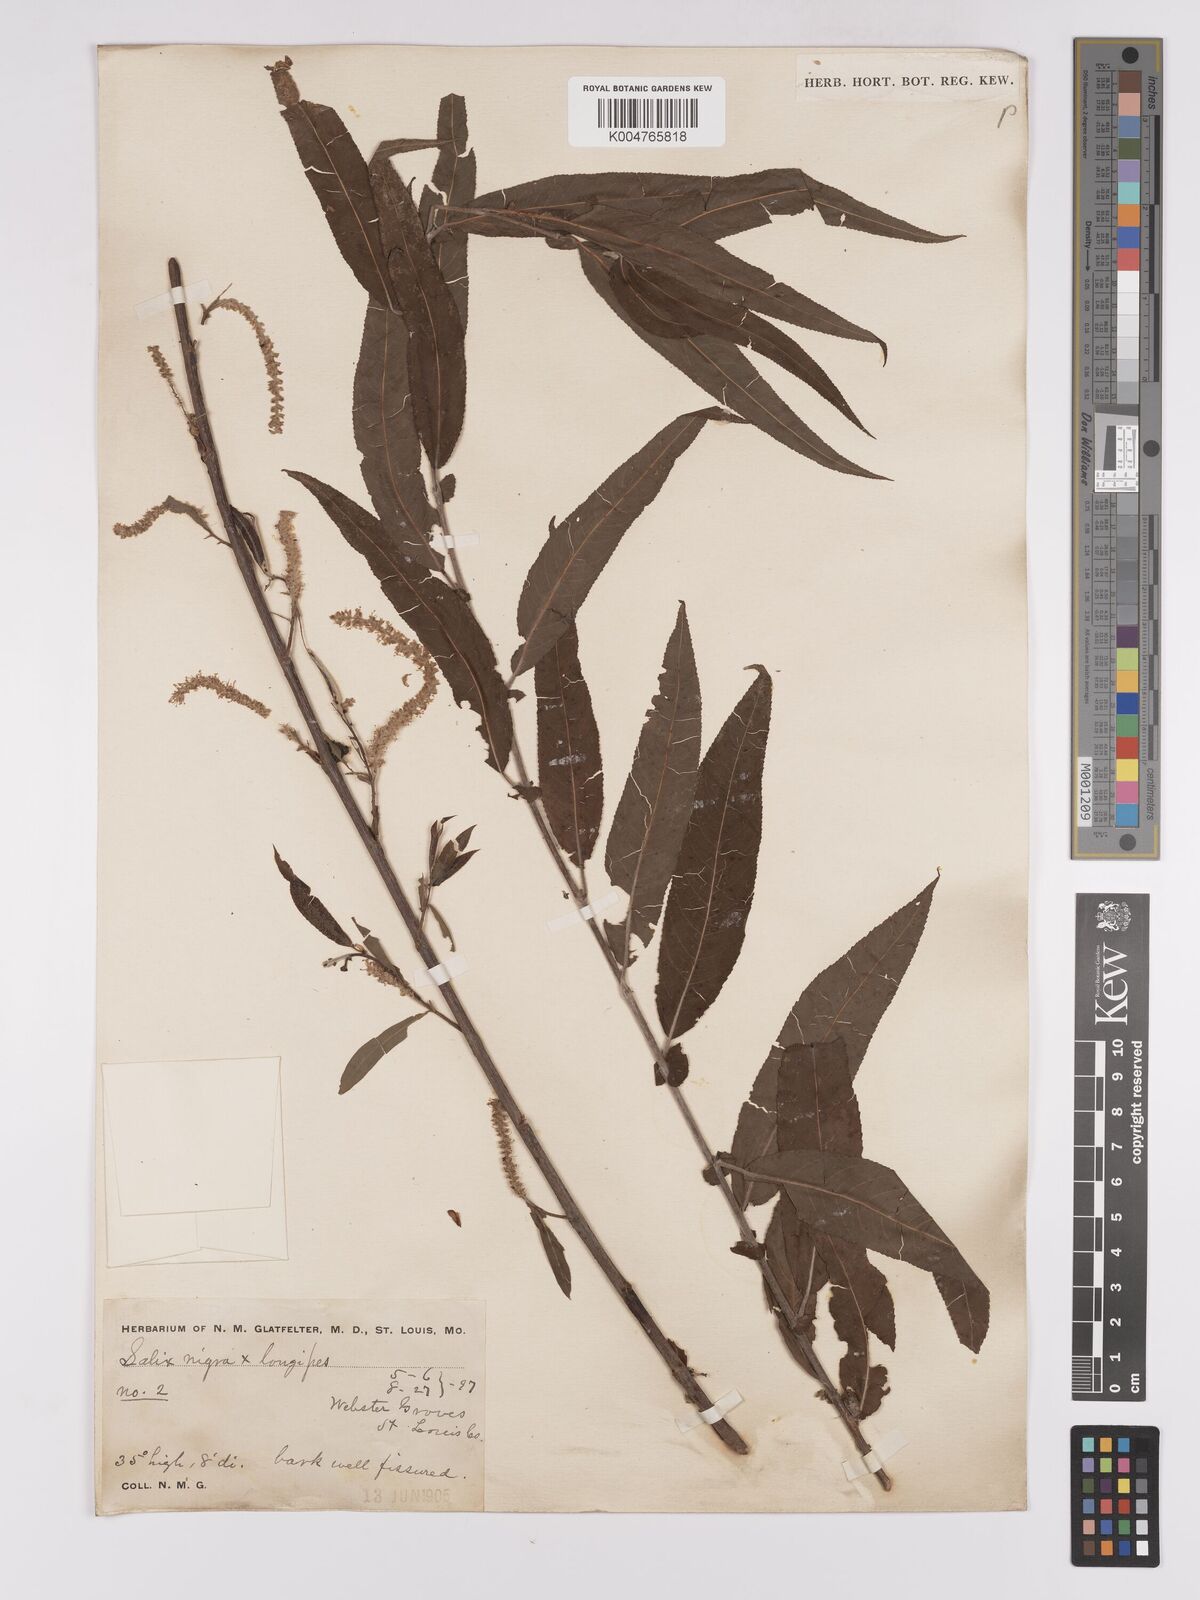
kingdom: Plantae
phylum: Tracheophyta
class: Magnoliopsida
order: Malpighiales
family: Salicaceae
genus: Salix
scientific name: Salix fruticulosa
